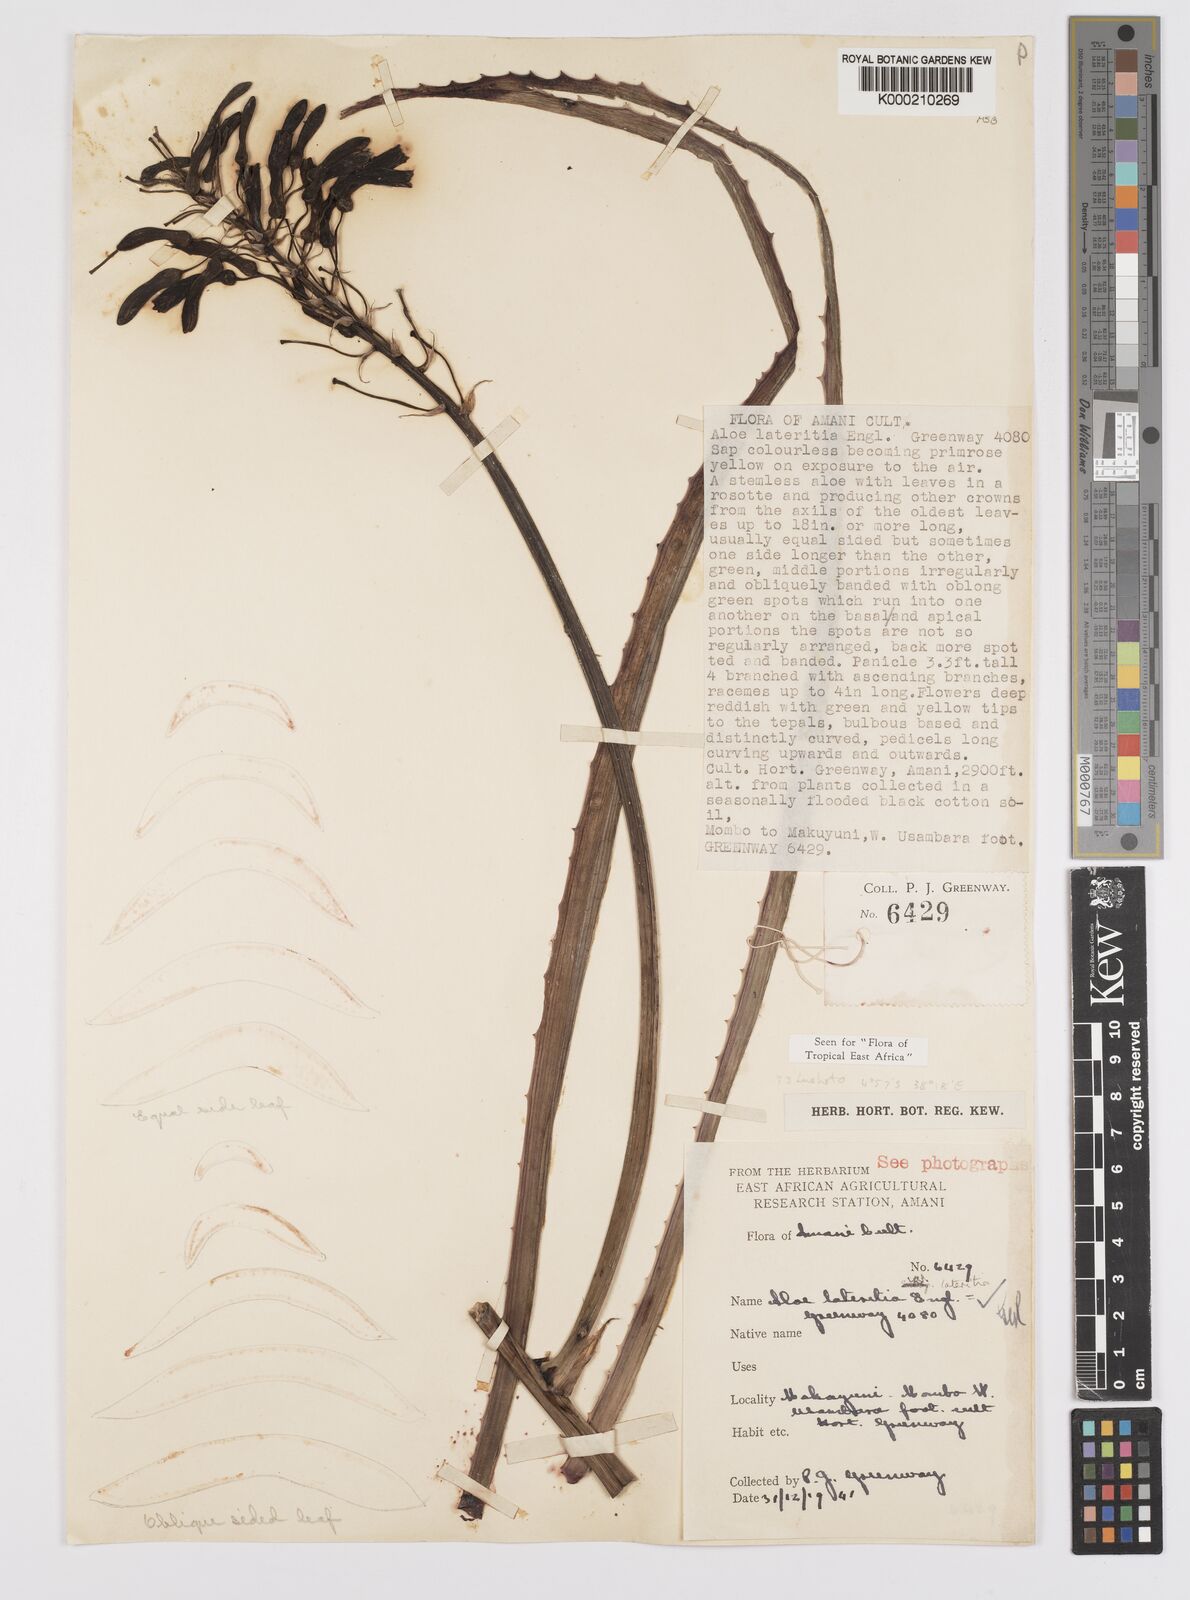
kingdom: Plantae
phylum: Tracheophyta
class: Liliopsida
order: Asparagales
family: Asphodelaceae
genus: Aloe
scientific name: Aloe lateritia
